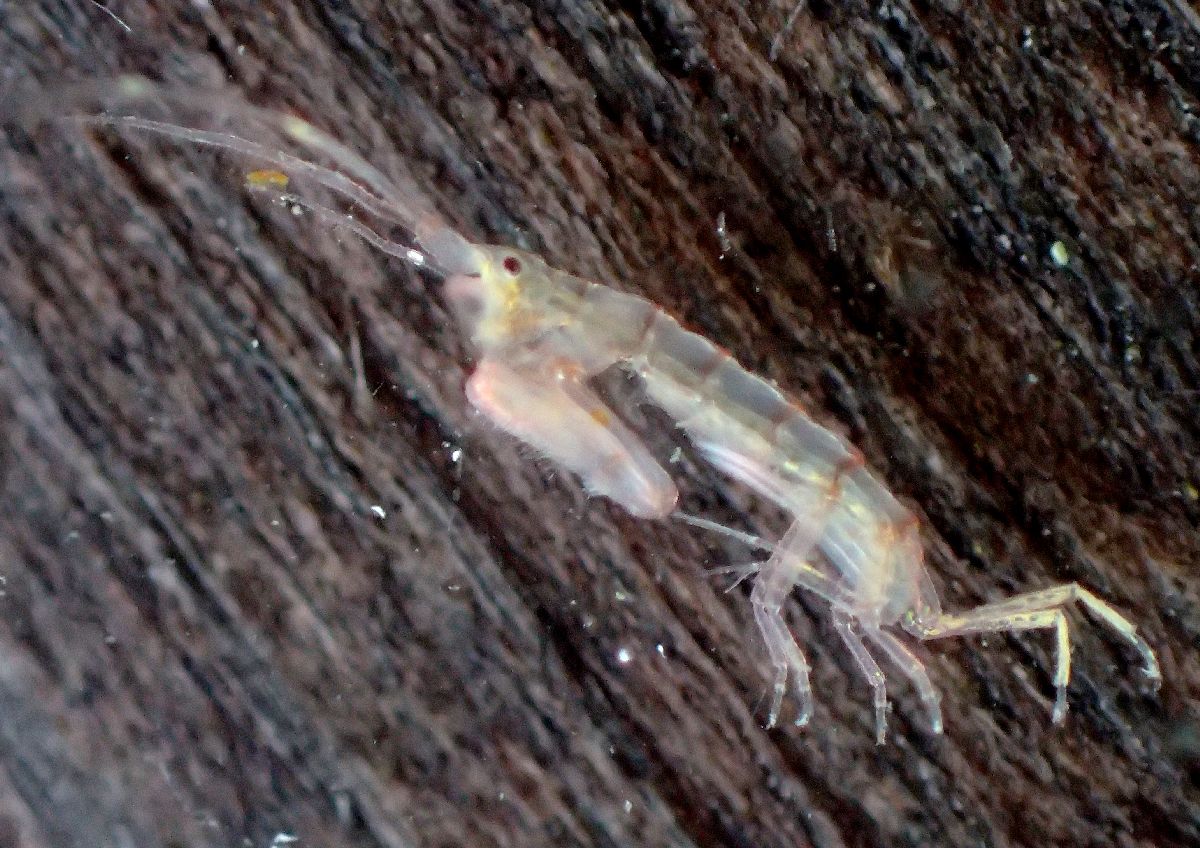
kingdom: Animalia
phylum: Arthropoda
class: Malacostraca
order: Amphipoda
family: Dulichiidae
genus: Dyopedos
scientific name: Dyopedos bispinis
